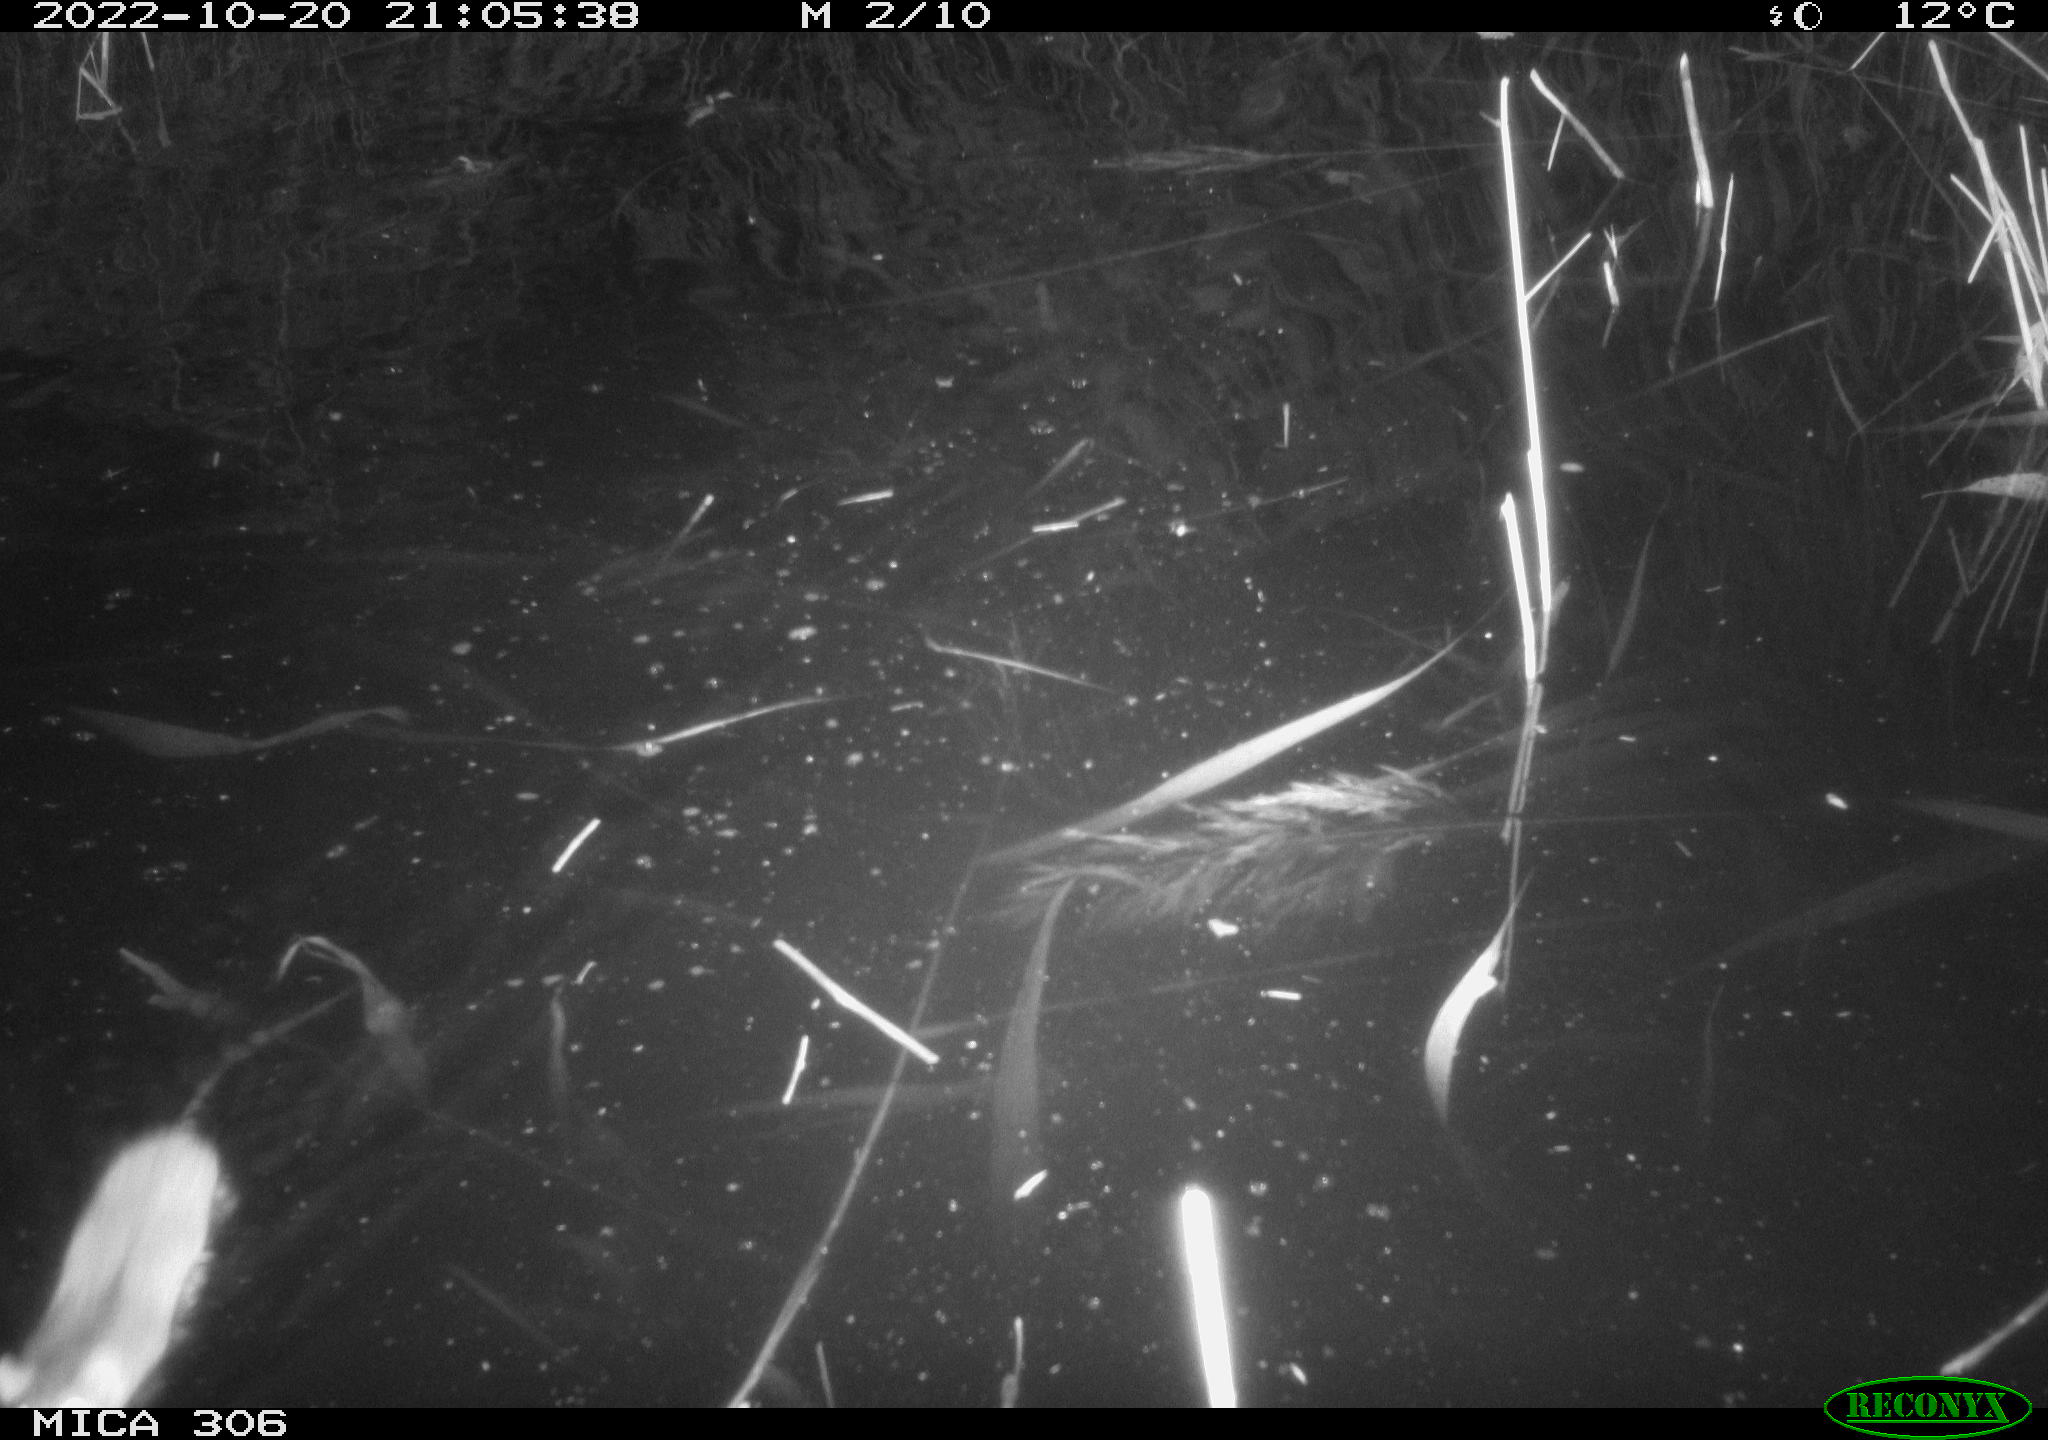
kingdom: Animalia
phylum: Chordata
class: Mammalia
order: Rodentia
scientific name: Rodentia
